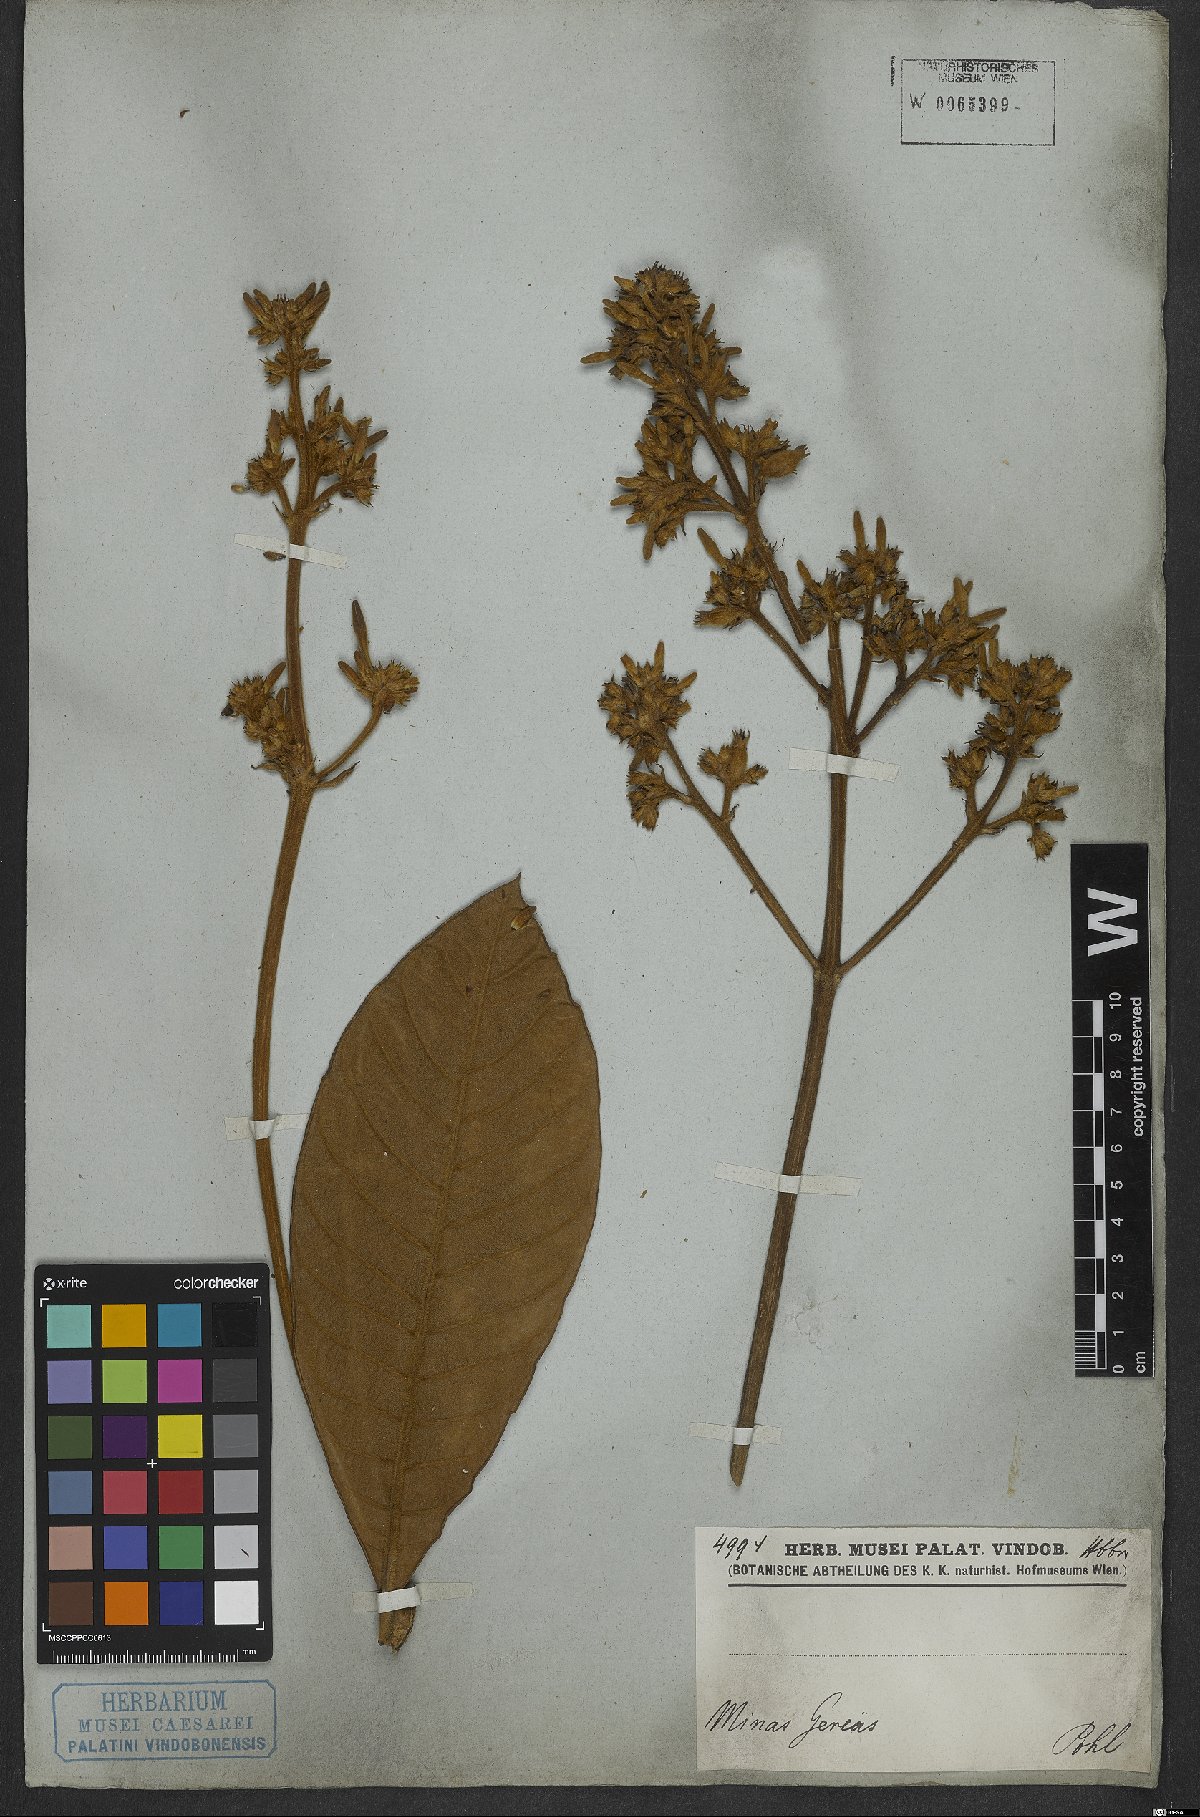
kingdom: Plantae
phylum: Tracheophyta
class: Magnoliopsida
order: Gentianales
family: Rubiaceae
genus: Remijia
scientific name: Remijia ferruginea
